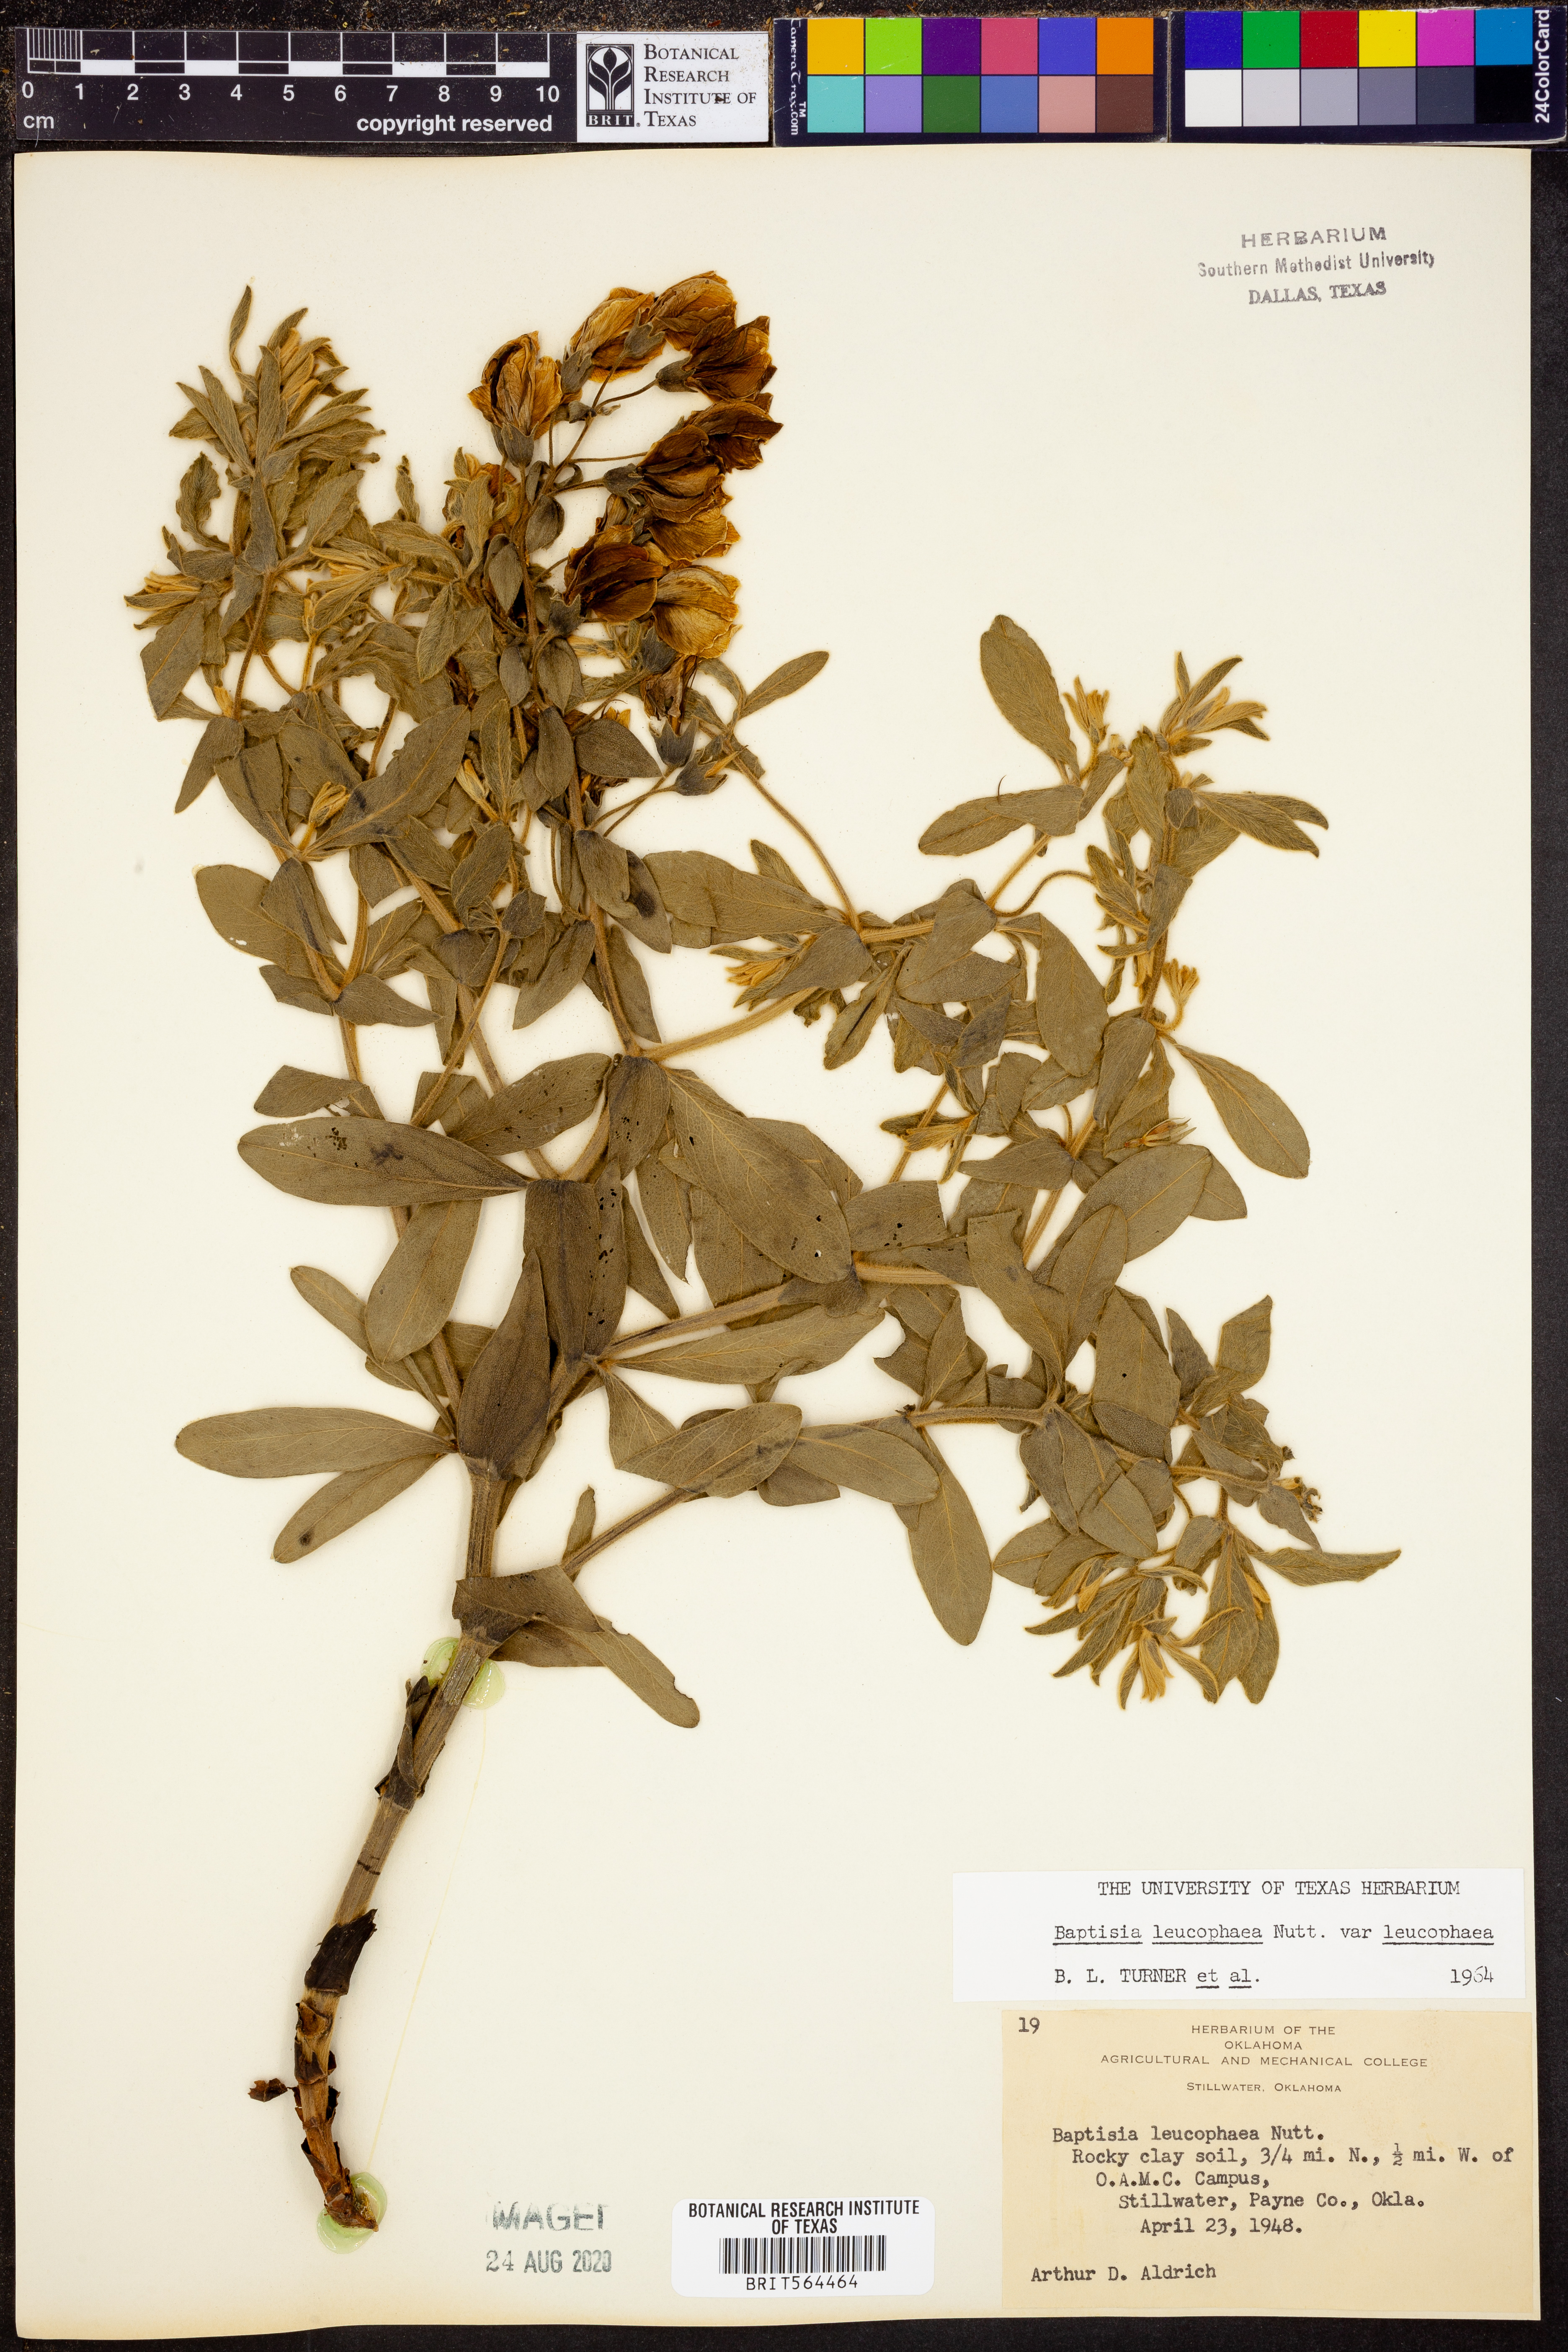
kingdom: Plantae
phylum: Tracheophyta
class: Magnoliopsida
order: Fabales
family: Fabaceae
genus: Baptisia
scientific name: Baptisia bracteata
